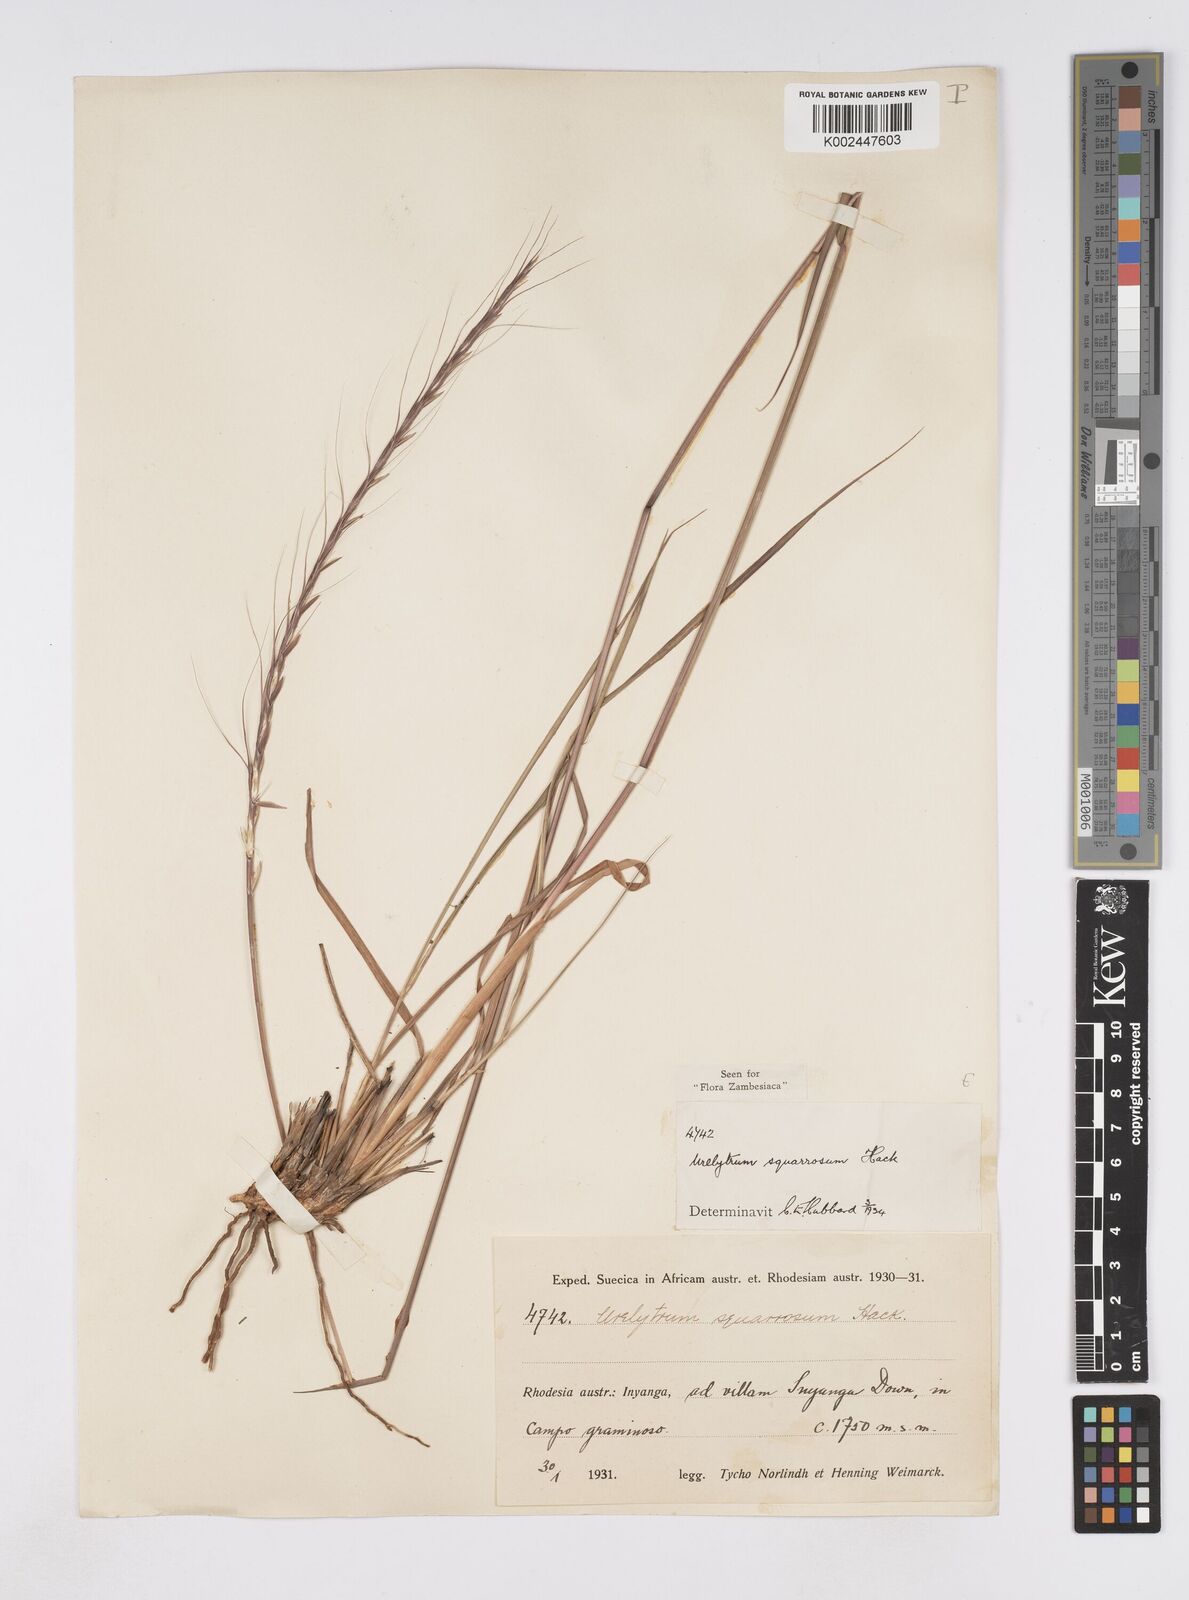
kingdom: Plantae
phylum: Tracheophyta
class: Liliopsida
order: Poales
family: Poaceae
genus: Urelytrum
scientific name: Urelytrum agropyroides
